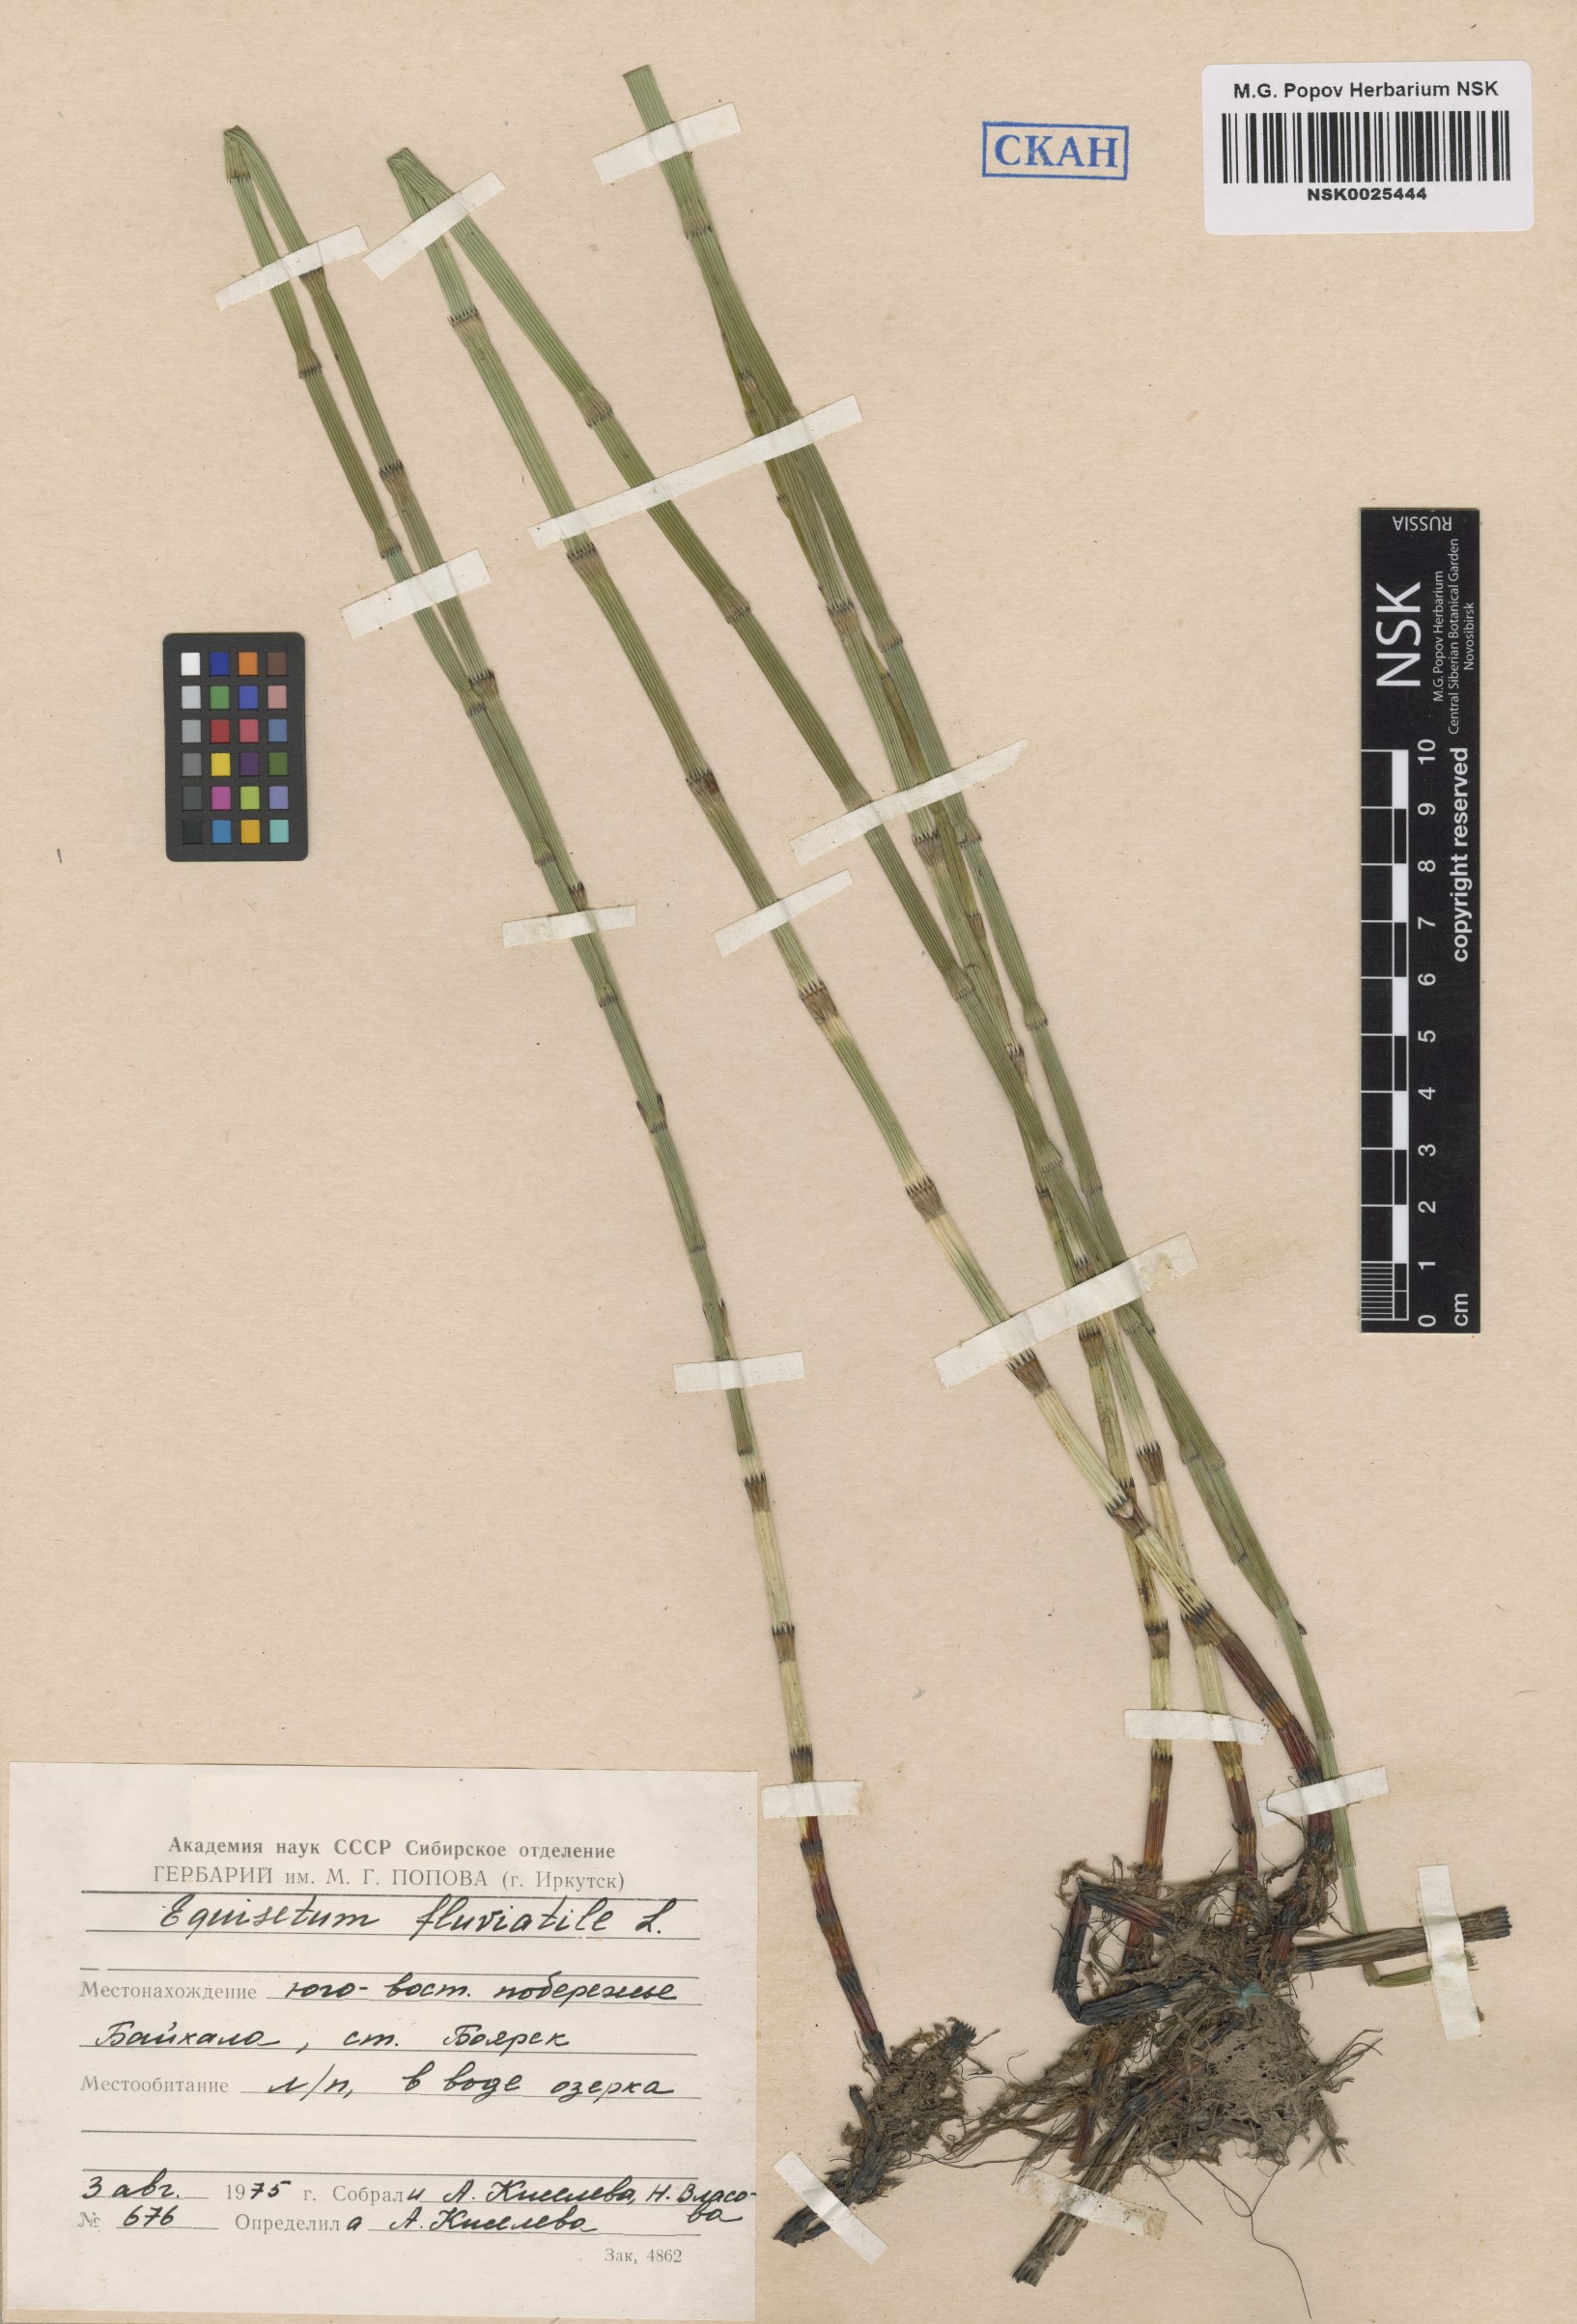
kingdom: Plantae
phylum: Tracheophyta
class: Polypodiopsida
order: Equisetales
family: Equisetaceae
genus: Equisetum
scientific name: Equisetum fluviatile
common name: Water horsetail
